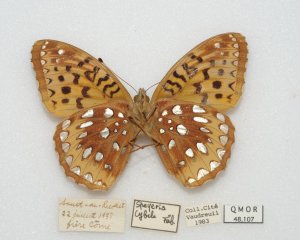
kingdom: Animalia
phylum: Arthropoda
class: Insecta
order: Lepidoptera
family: Nymphalidae
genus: Speyeria
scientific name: Speyeria cybele
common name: Great Spangled Fritillary
